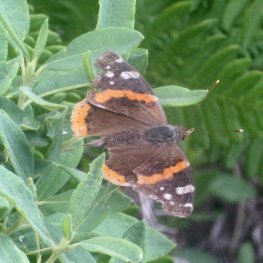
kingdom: Animalia
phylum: Arthropoda
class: Insecta
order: Lepidoptera
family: Nymphalidae
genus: Vanessa
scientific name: Vanessa atalanta
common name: Red Admiral
